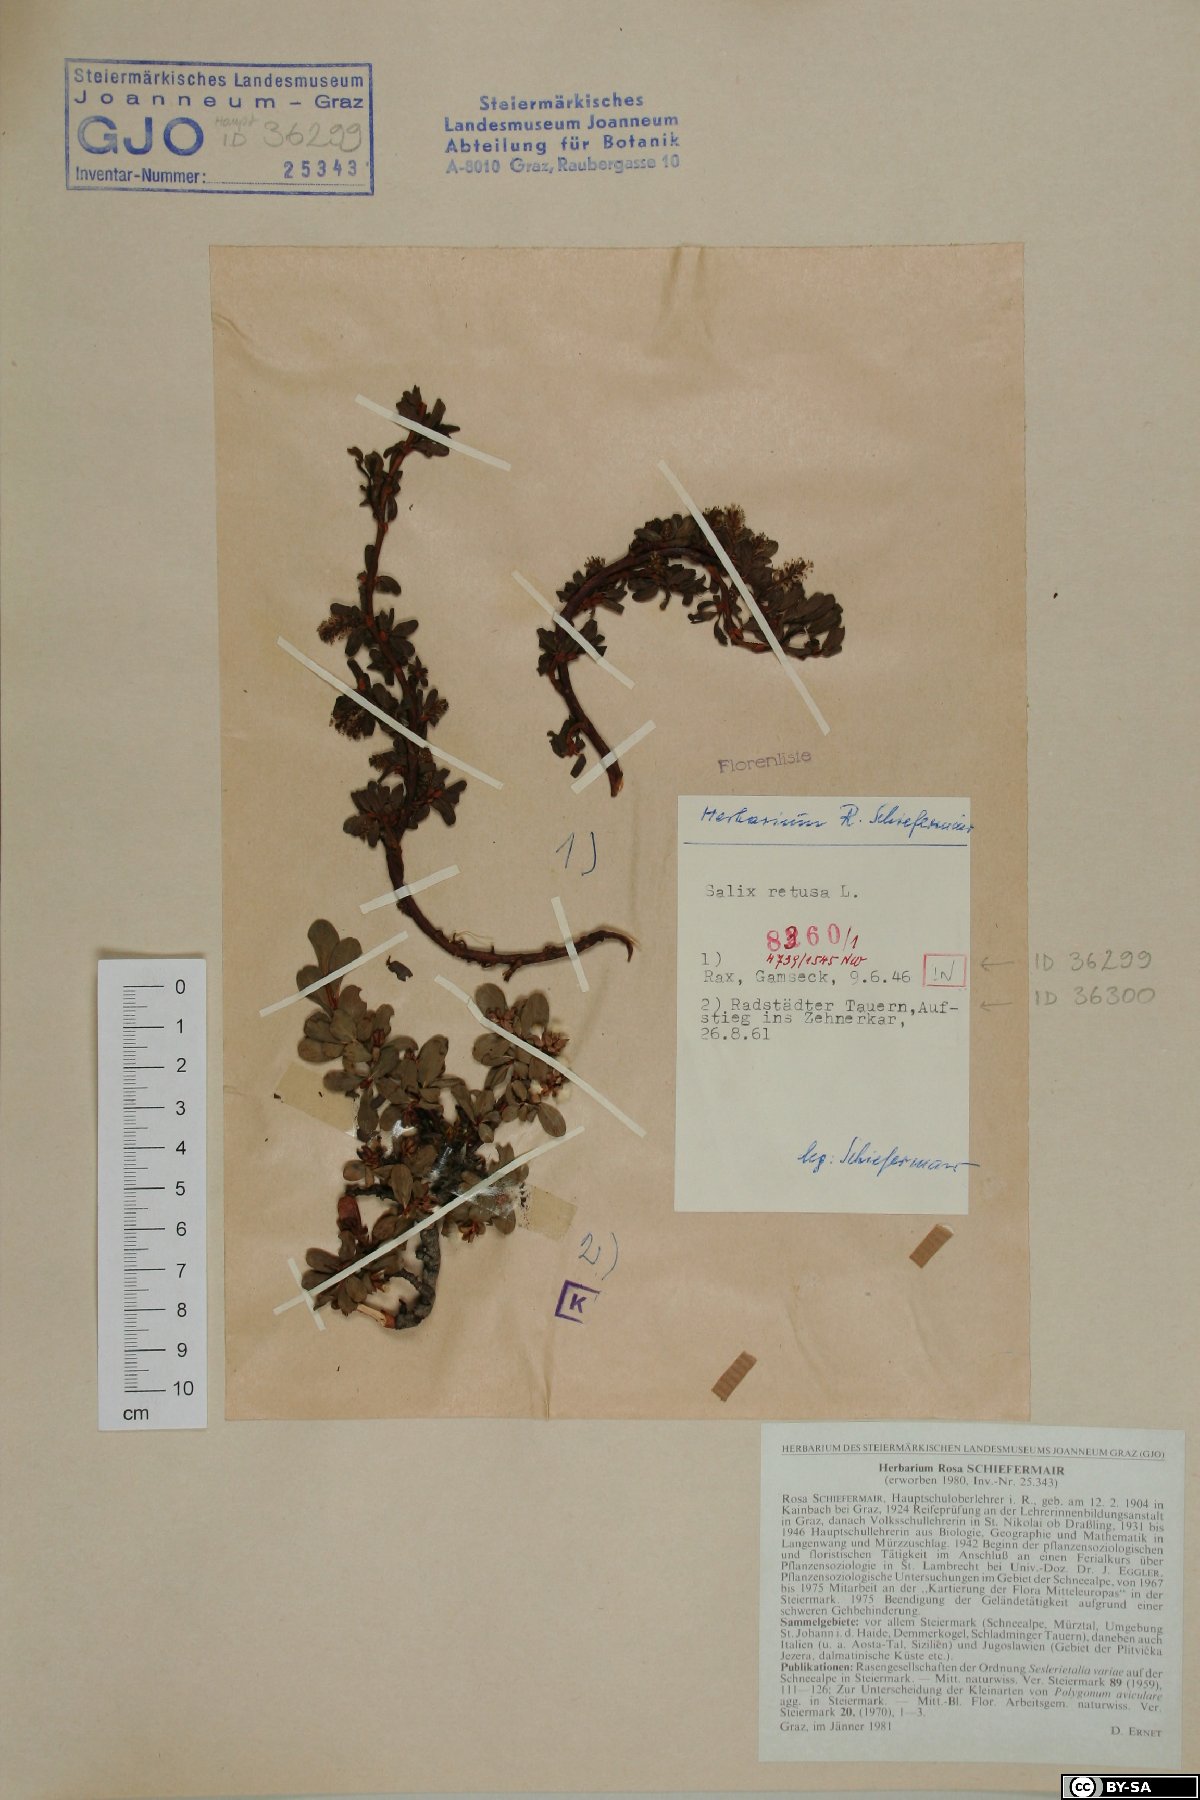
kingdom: Plantae
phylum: Tracheophyta
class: Magnoliopsida
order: Malpighiales
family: Salicaceae
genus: Salix
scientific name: Salix retusa
